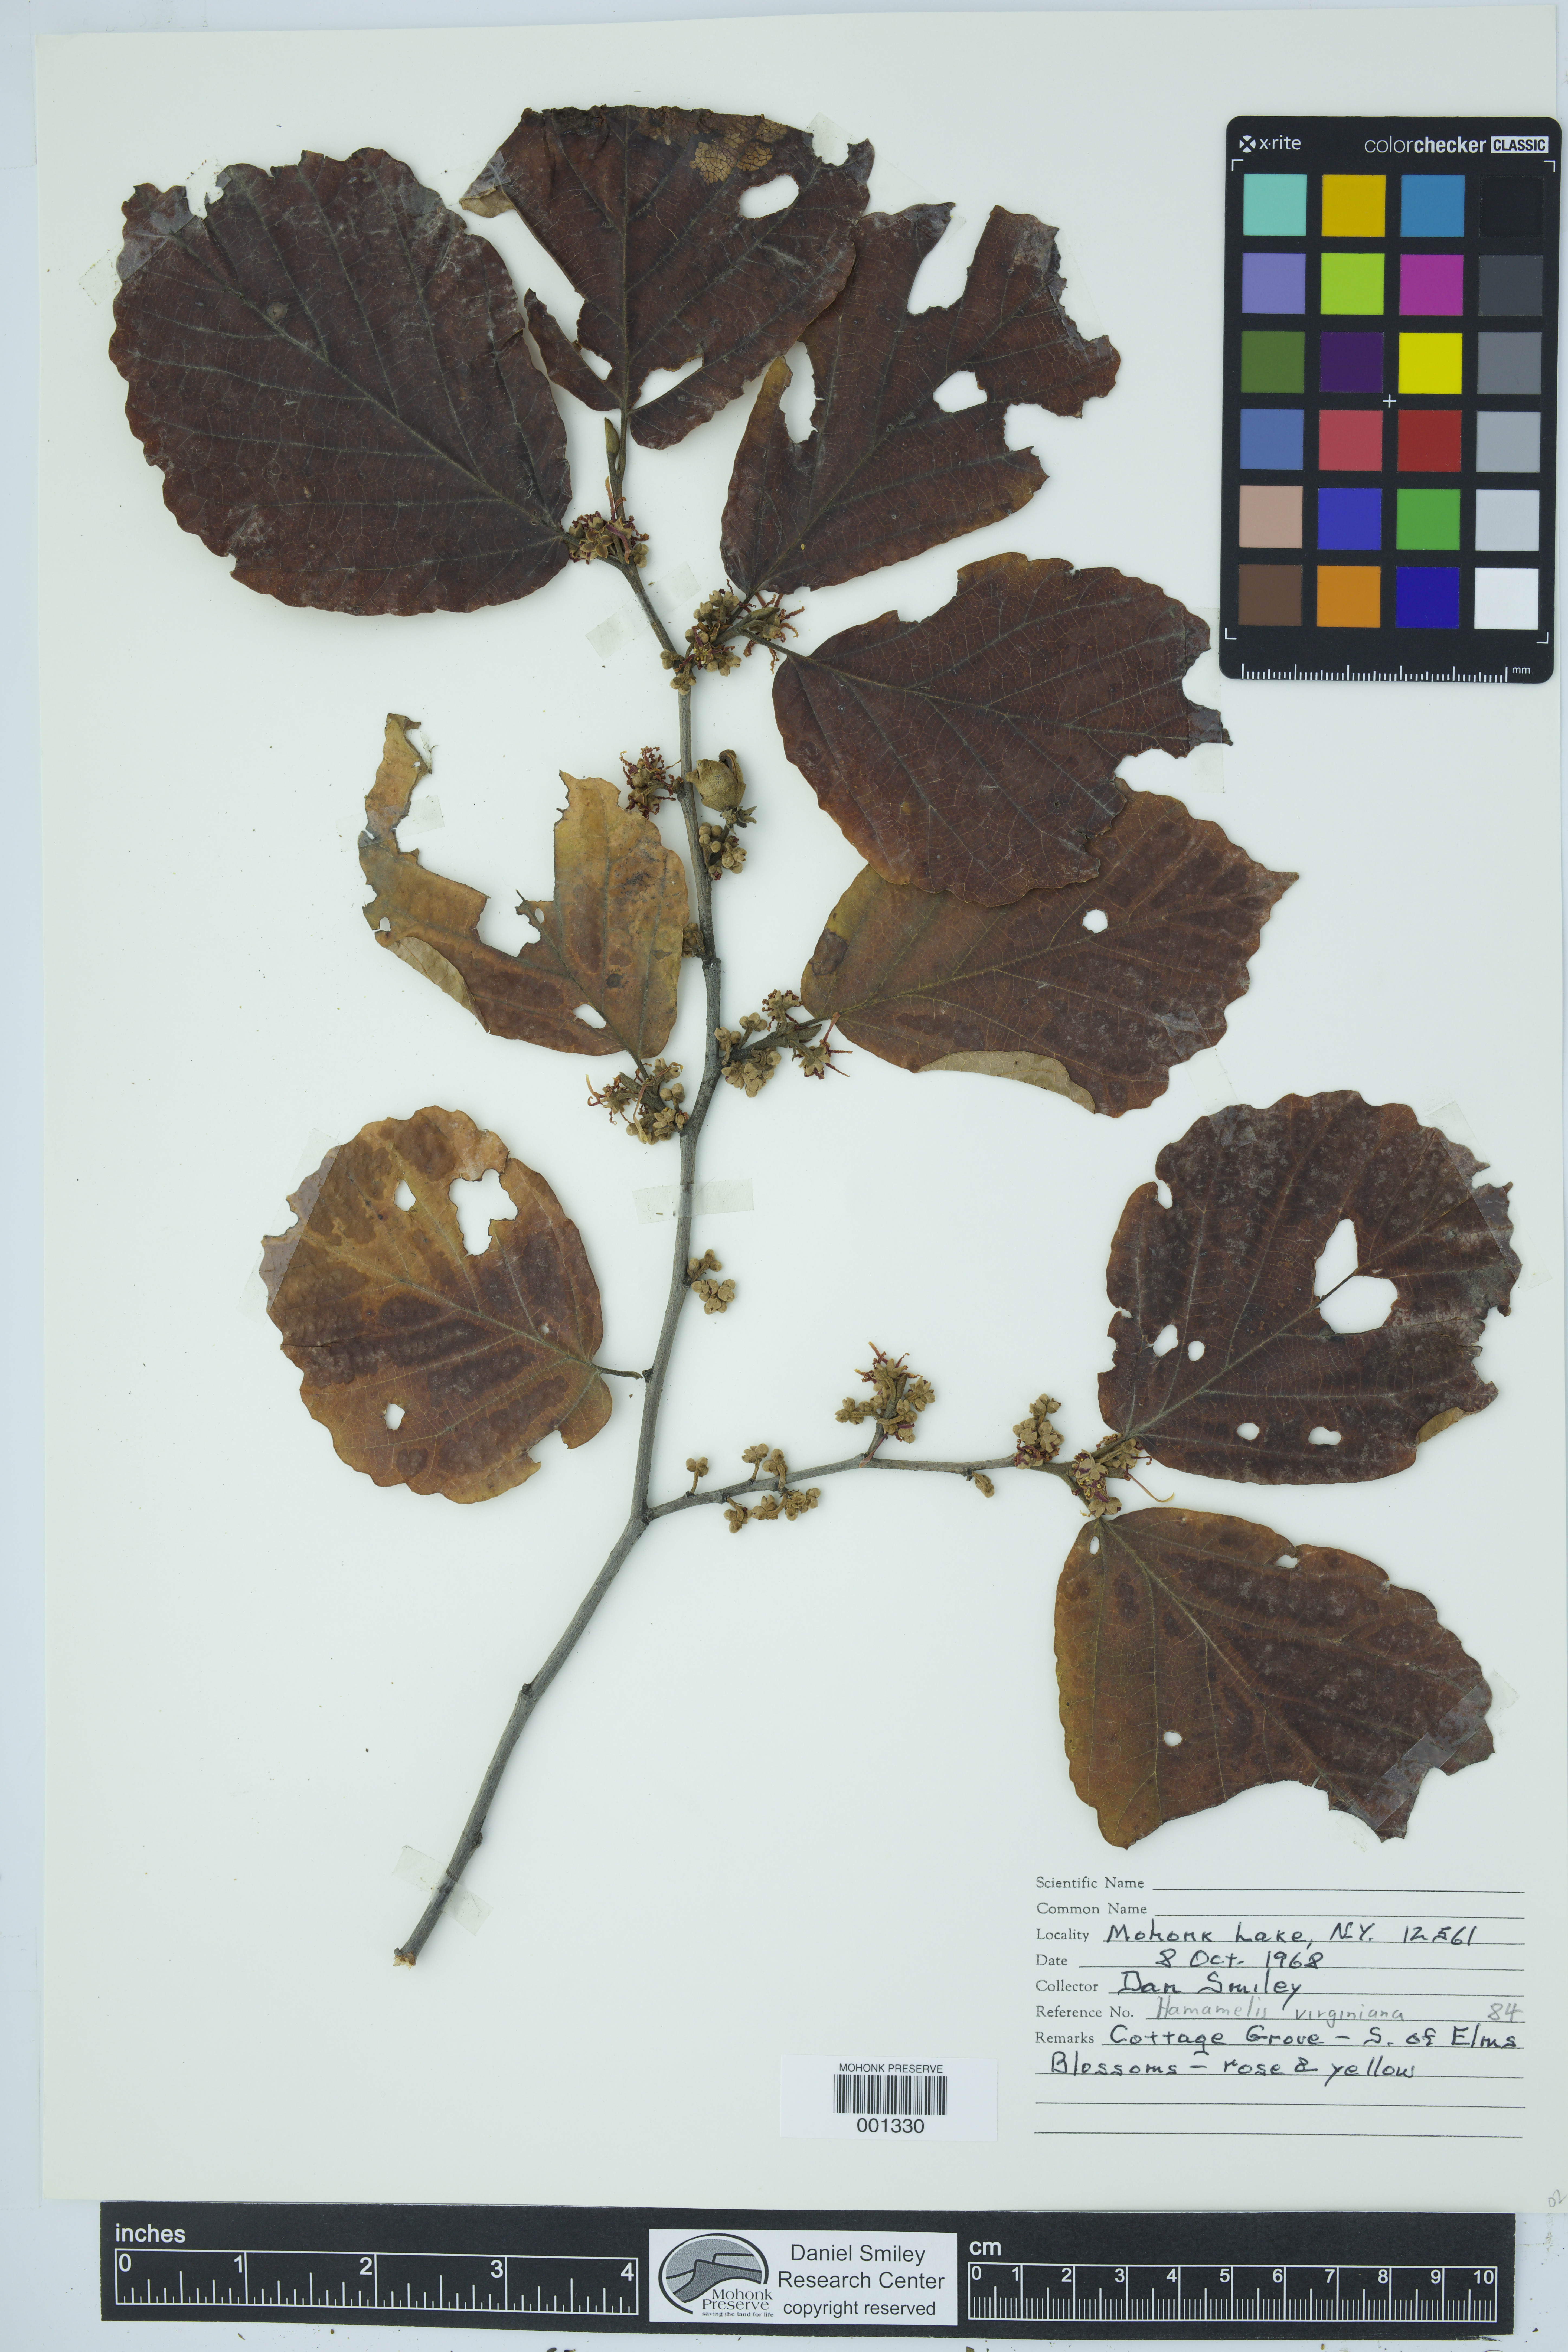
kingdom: Plantae
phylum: Tracheophyta
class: Magnoliopsida
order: Saxifragales
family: Hamamelidaceae
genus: Hamamelis
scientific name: Hamamelis virginiana
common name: Witch-hazel
